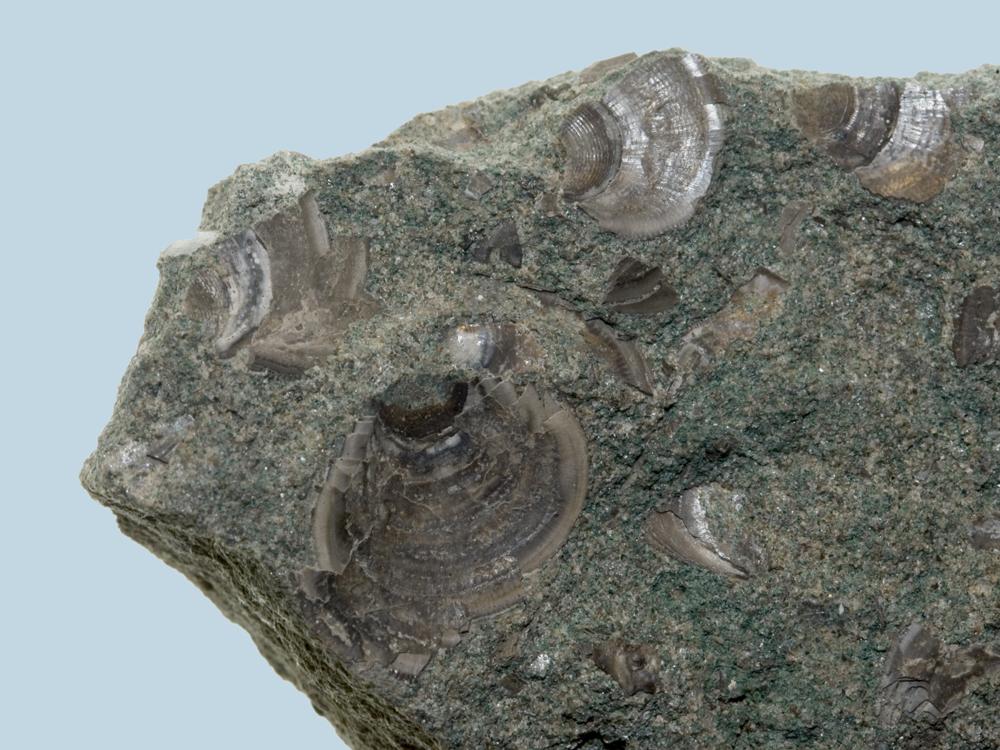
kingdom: Animalia
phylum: Brachiopoda
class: Lingulata
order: Lingulida
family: Lingulidae
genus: Lingula
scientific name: Lingula
